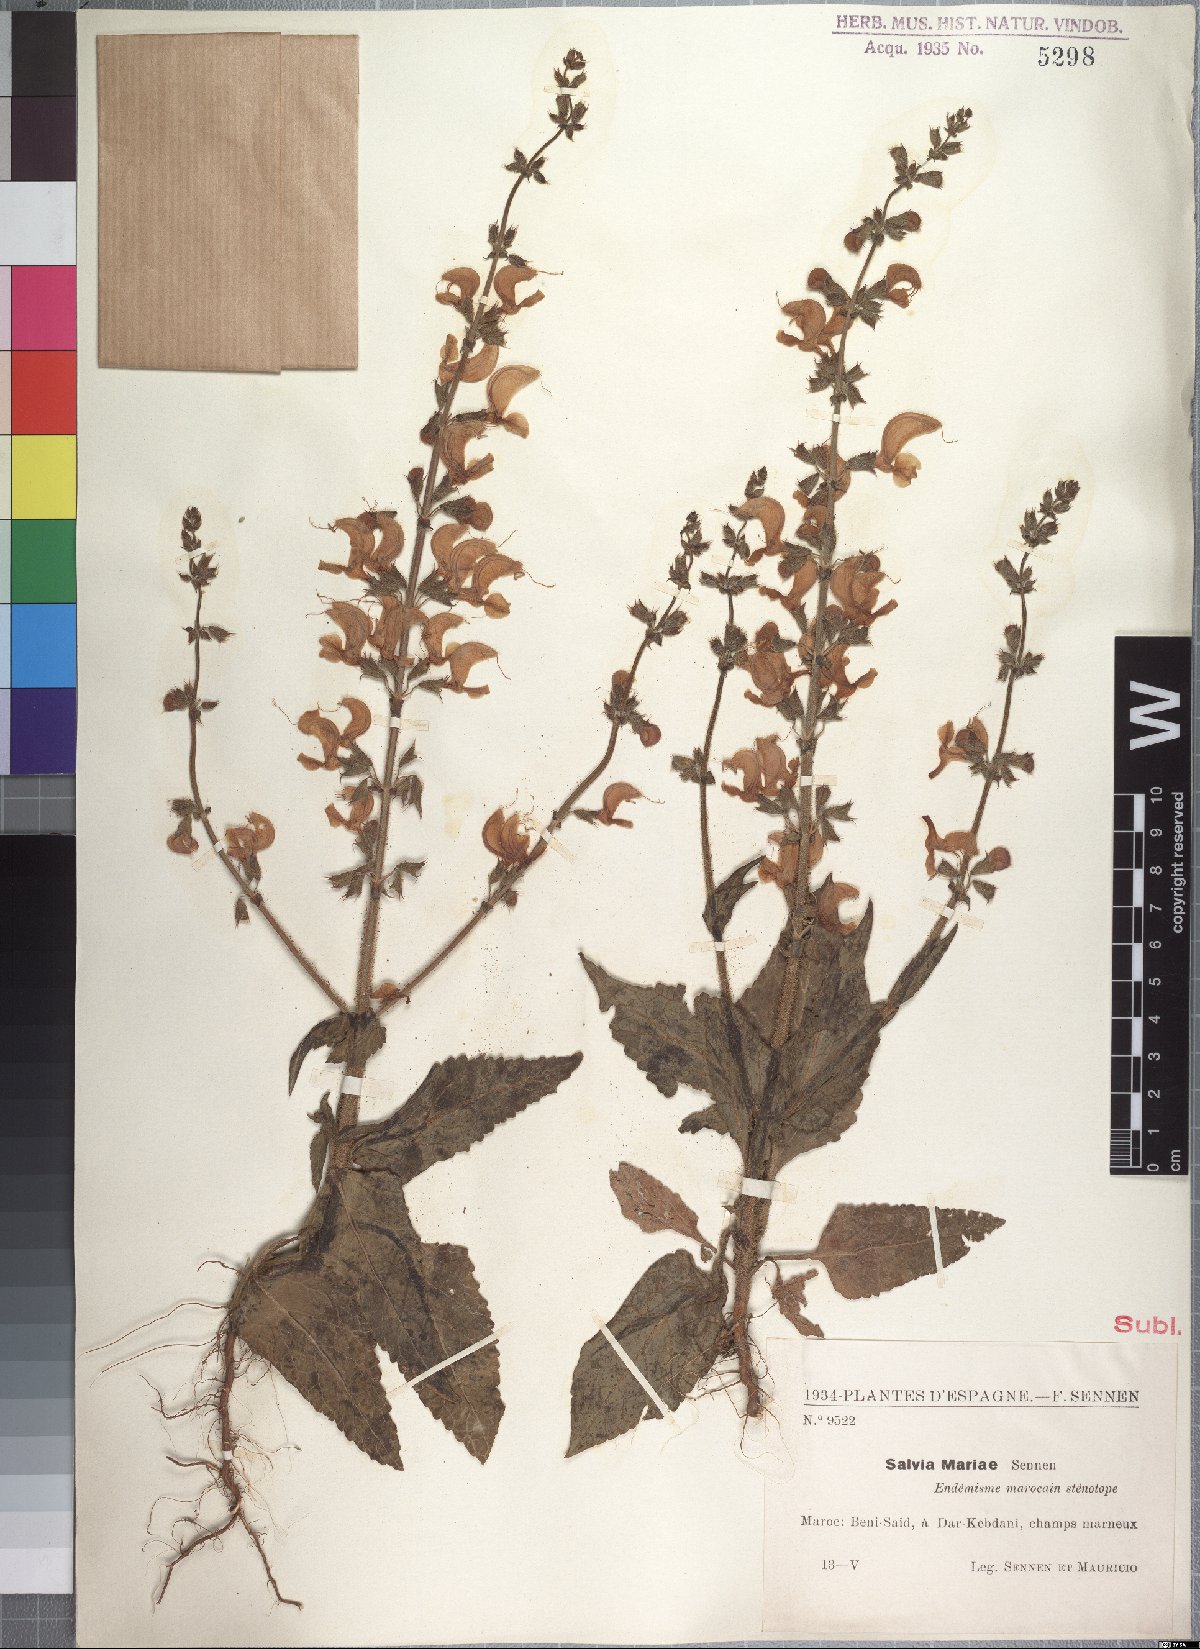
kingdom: Plantae
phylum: Tracheophyta
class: Magnoliopsida
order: Lamiales
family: Lamiaceae
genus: Salvia
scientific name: Salvia algeriensis
